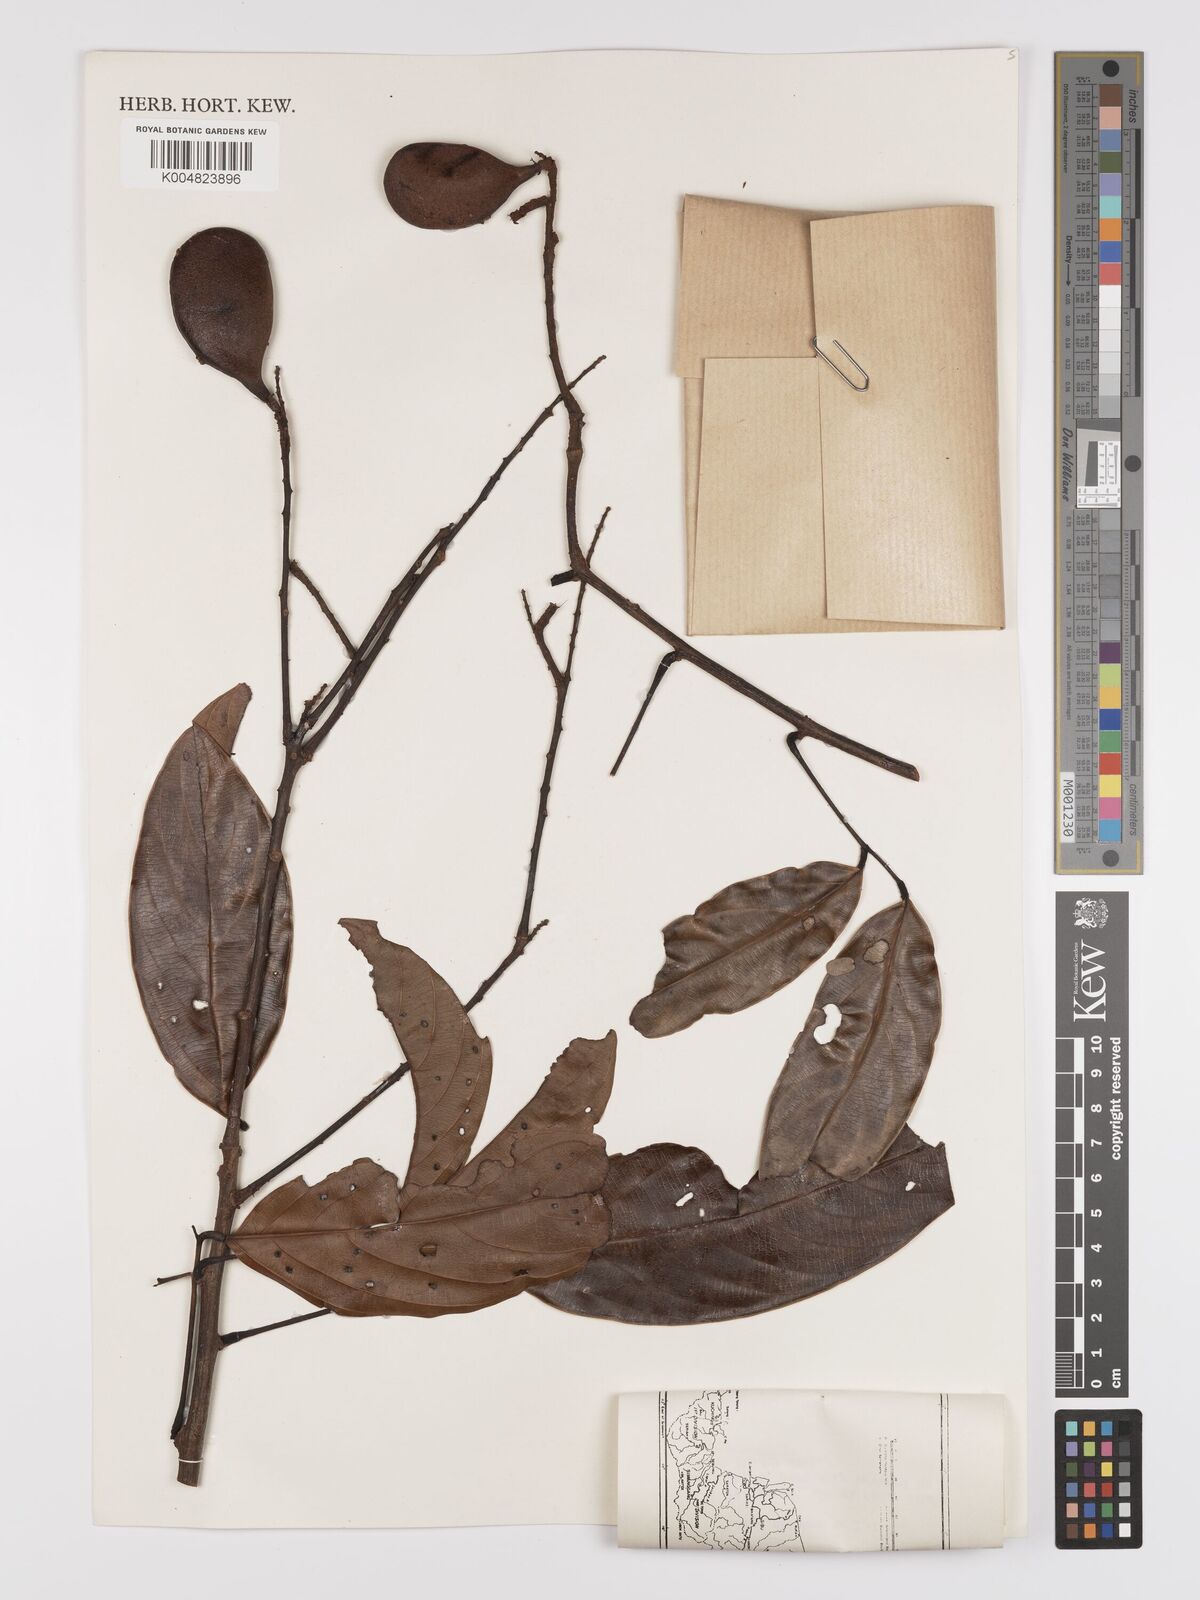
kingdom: Plantae
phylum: Tracheophyta
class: Magnoliopsida
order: Oxalidales
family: Connaraceae
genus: Connarus
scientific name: Connarus grandis
